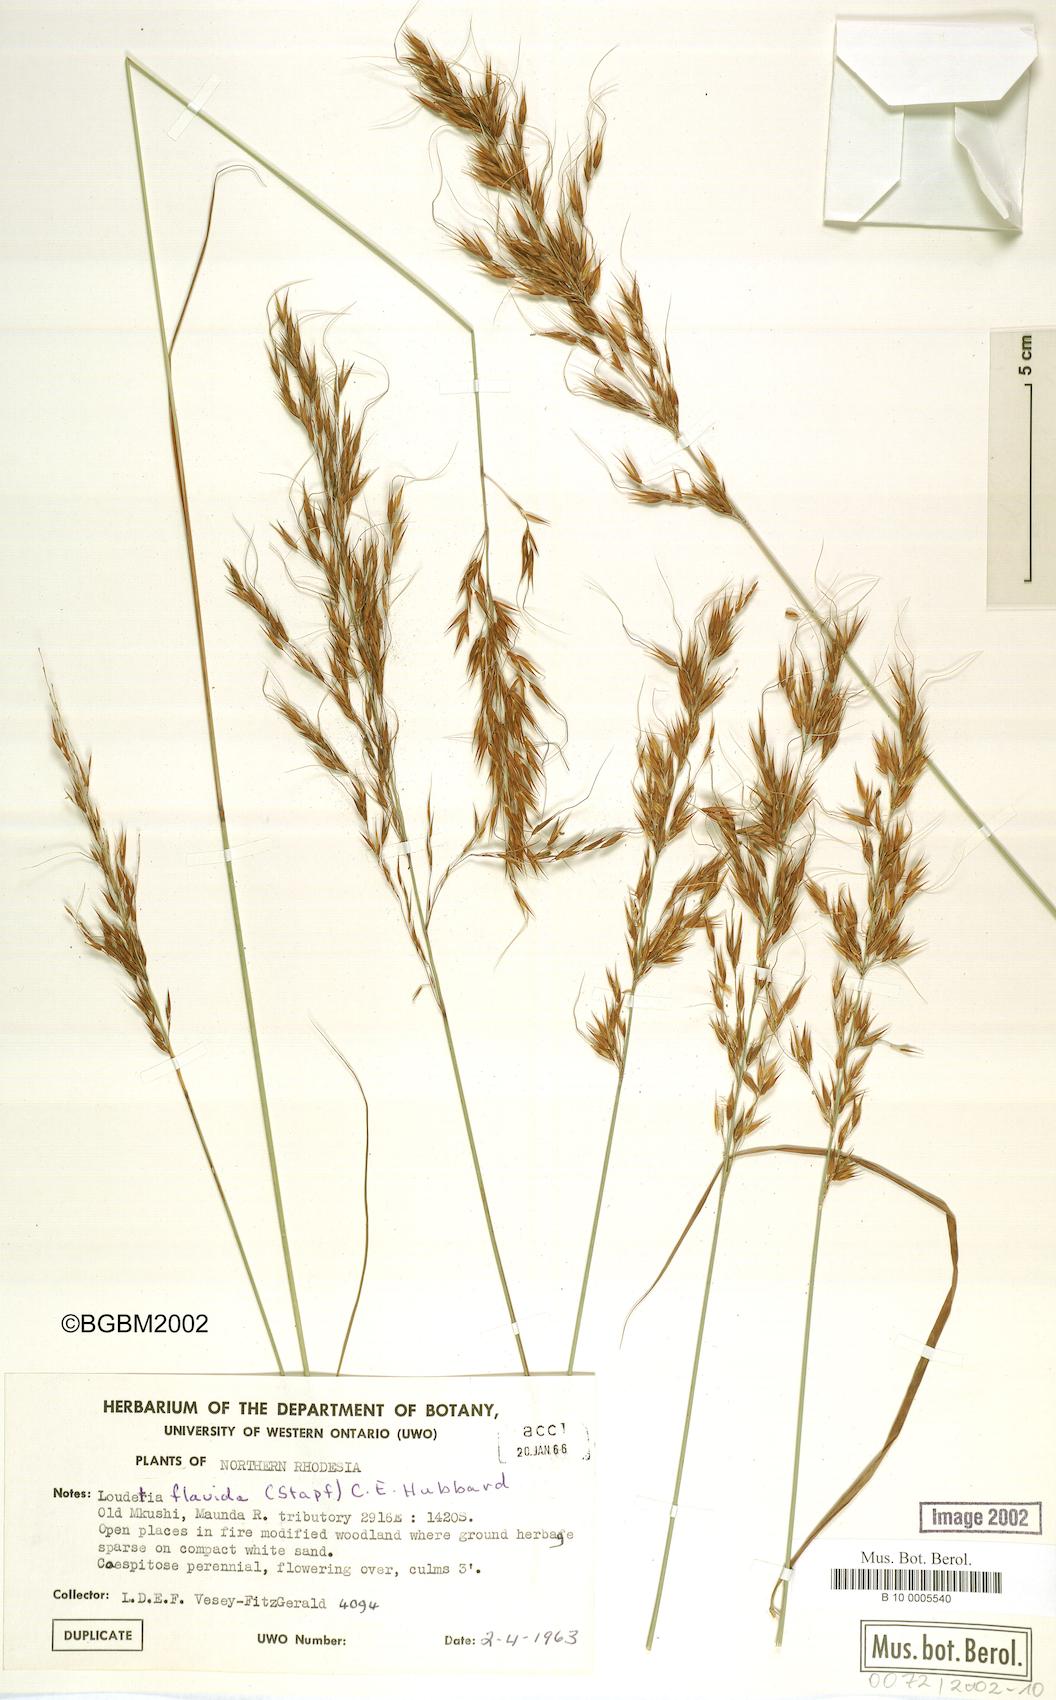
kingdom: Plantae
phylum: Tracheophyta
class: Liliopsida
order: Poales
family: Poaceae
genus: Loudetia
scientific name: Loudetia flavida
